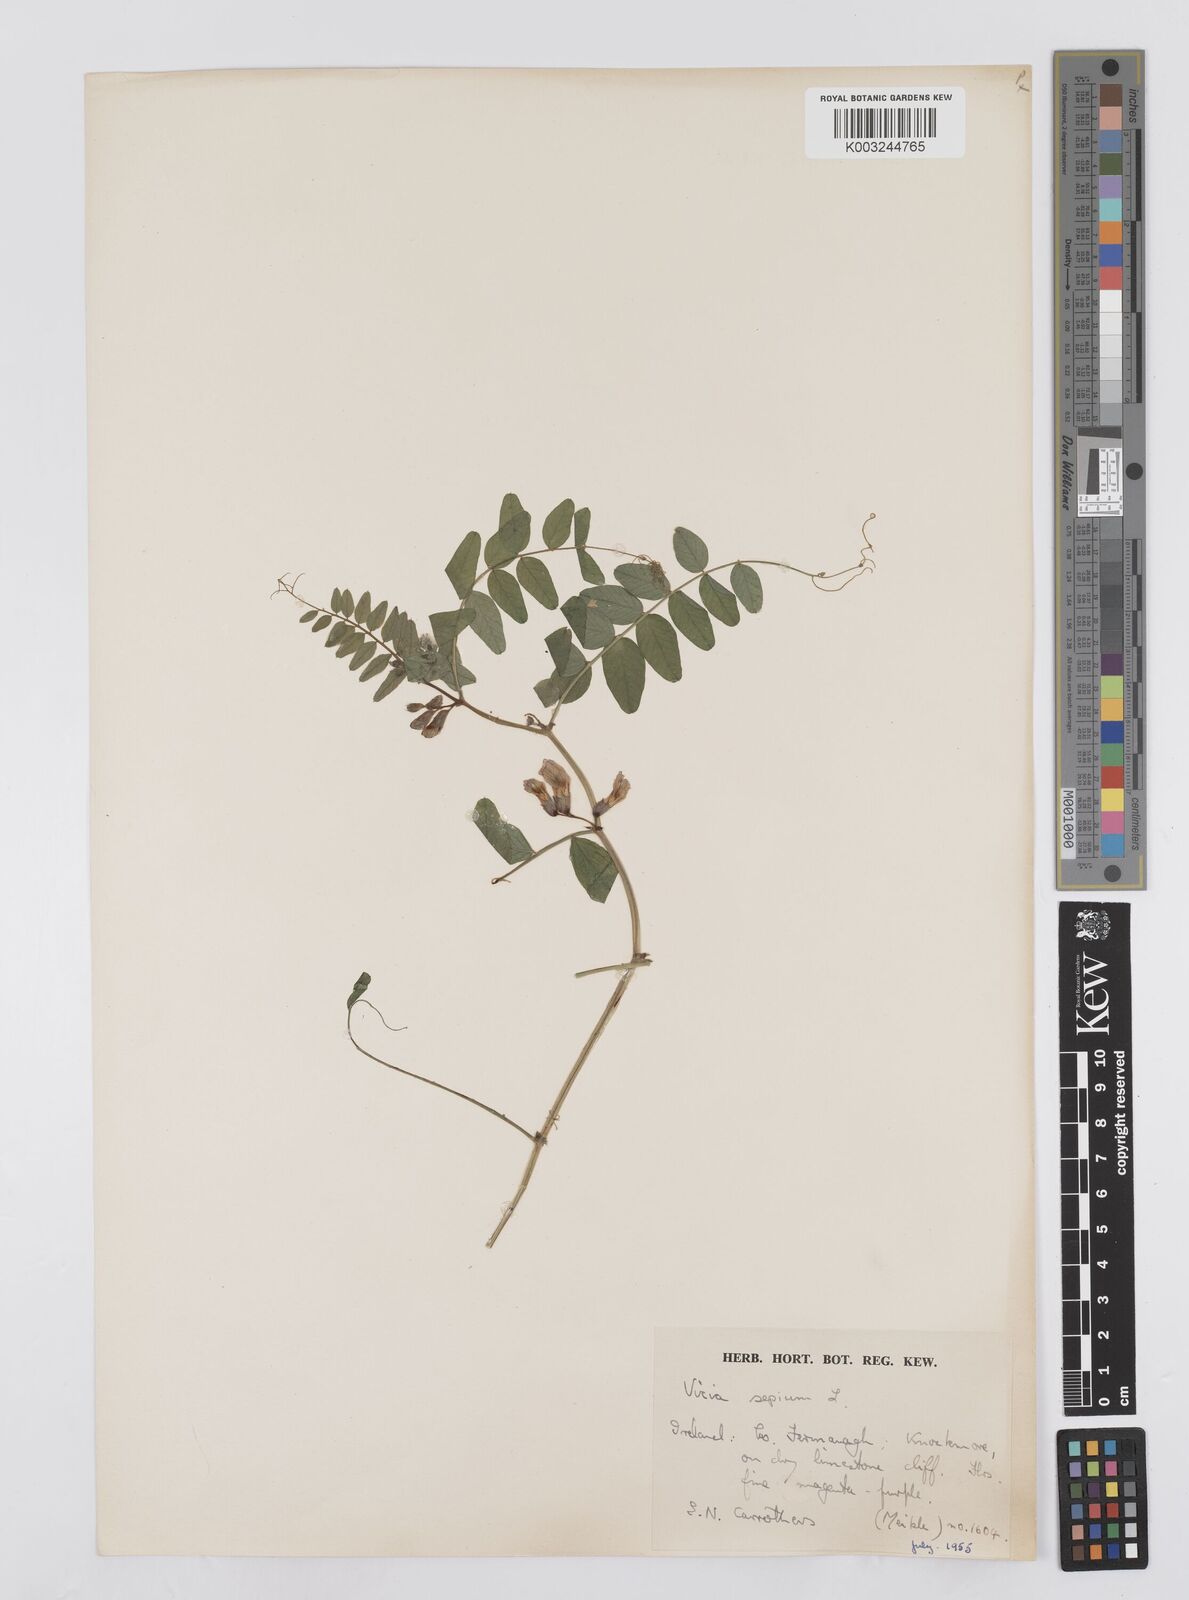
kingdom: Plantae
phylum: Tracheophyta
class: Magnoliopsida
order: Fabales
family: Fabaceae
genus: Vicia
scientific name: Vicia sepium
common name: Bush vetch
